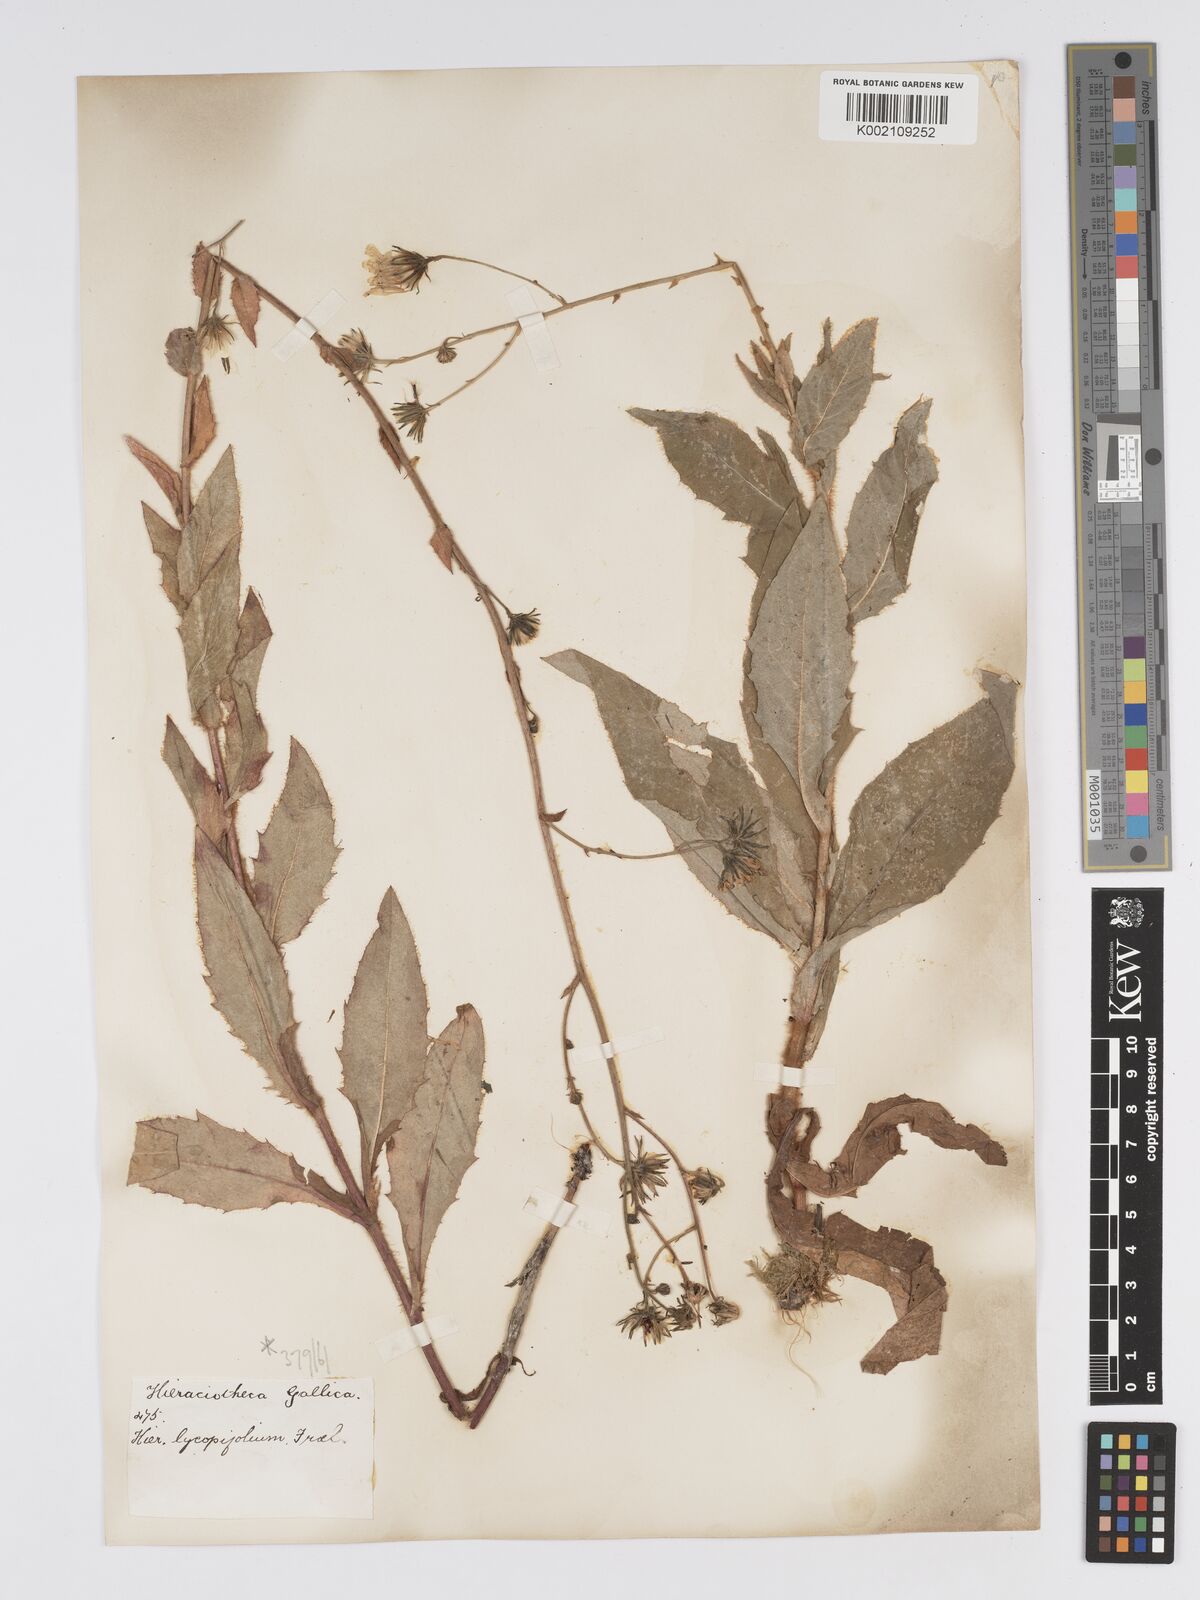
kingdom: Plantae
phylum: Tracheophyta
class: Magnoliopsida
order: Asterales
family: Asteraceae
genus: Hieracium
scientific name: Hieracium lycopifolium
